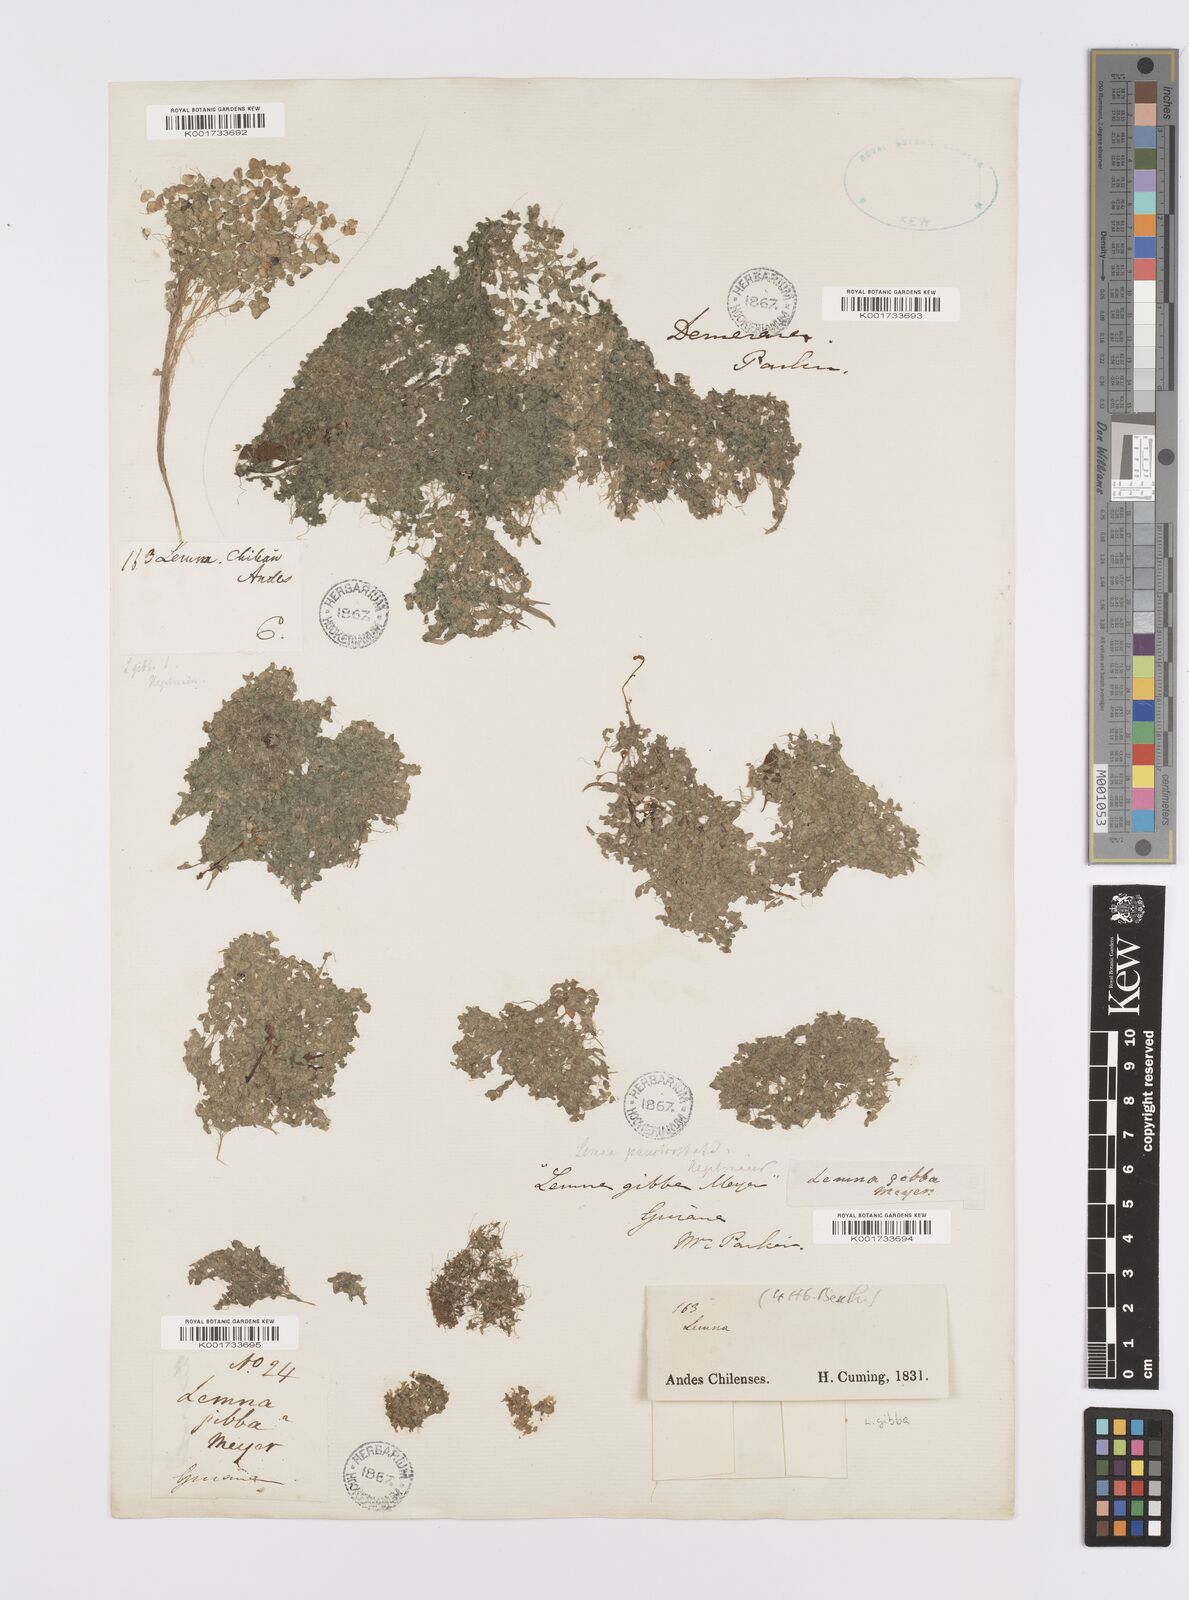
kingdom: Plantae
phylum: Tracheophyta
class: Liliopsida
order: Alismatales
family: Araceae
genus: Lemna
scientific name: Lemna gibba
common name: Fat duckweed
